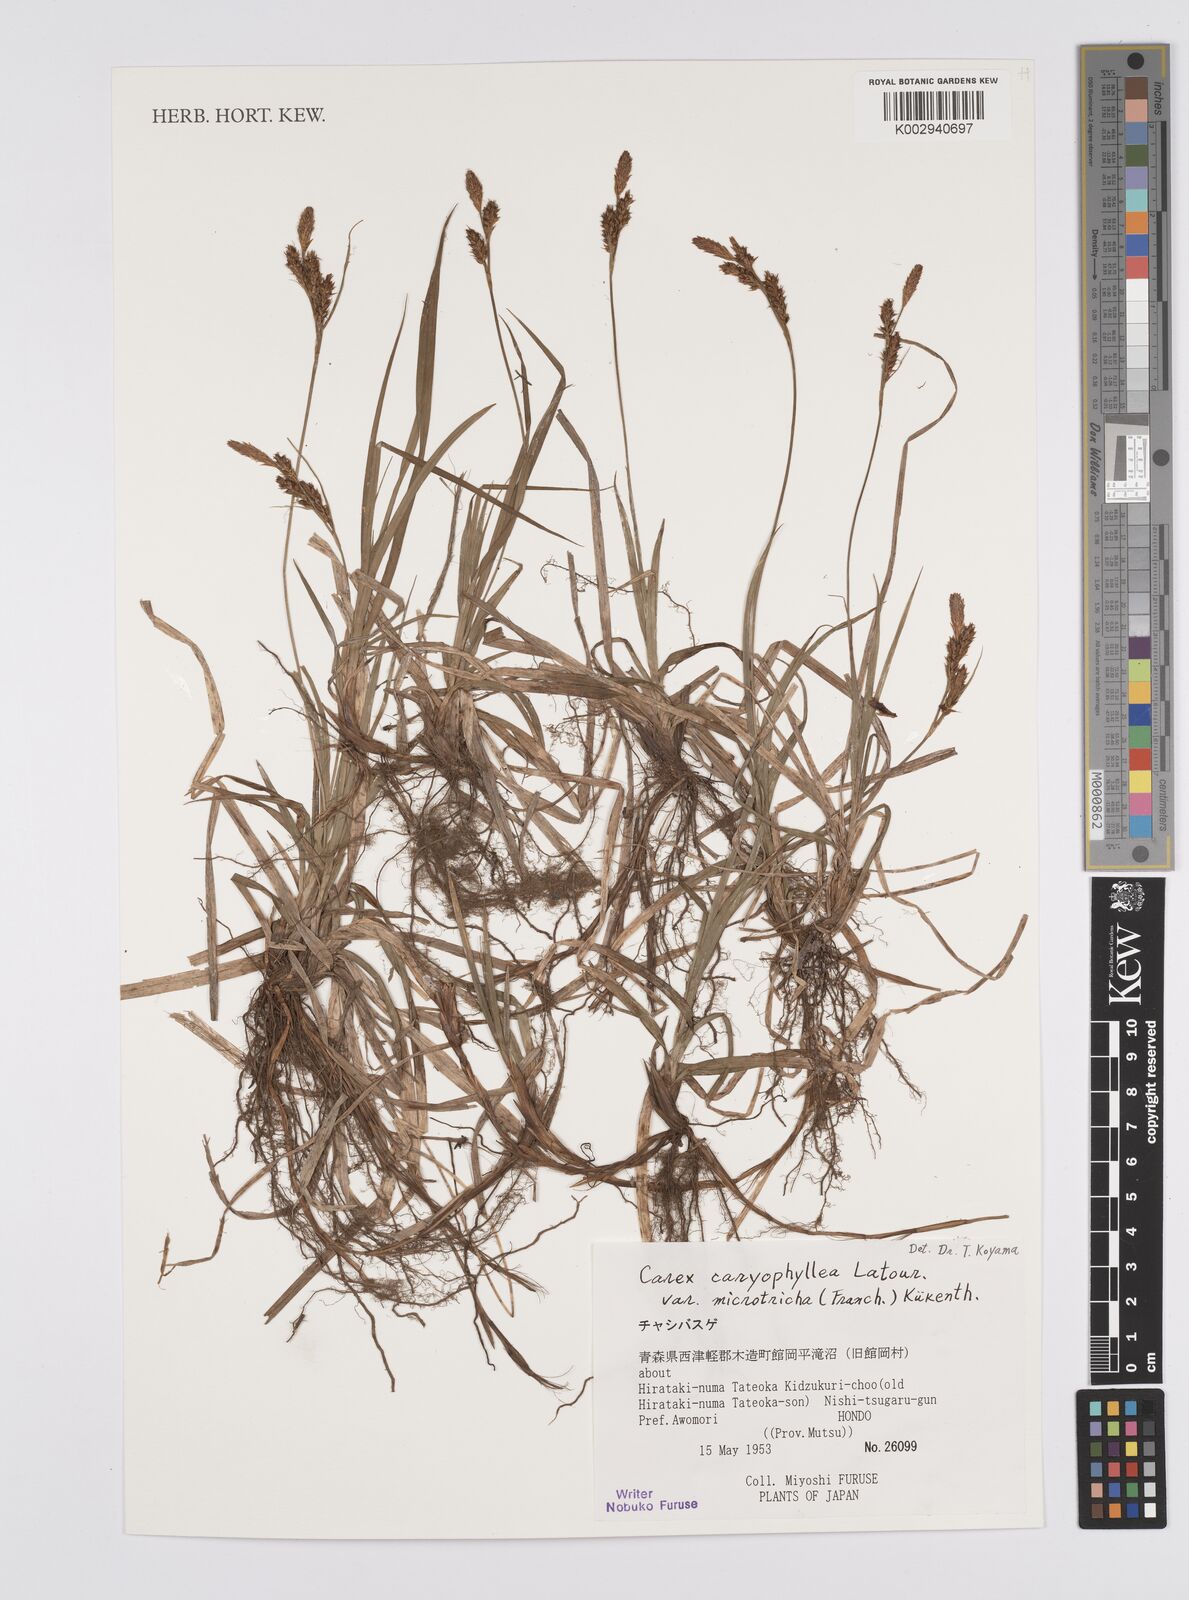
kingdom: Plantae
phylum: Tracheophyta
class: Liliopsida
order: Poales
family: Cyperaceae
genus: Carex
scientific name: Carex caryophyllea
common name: Spring sedge
